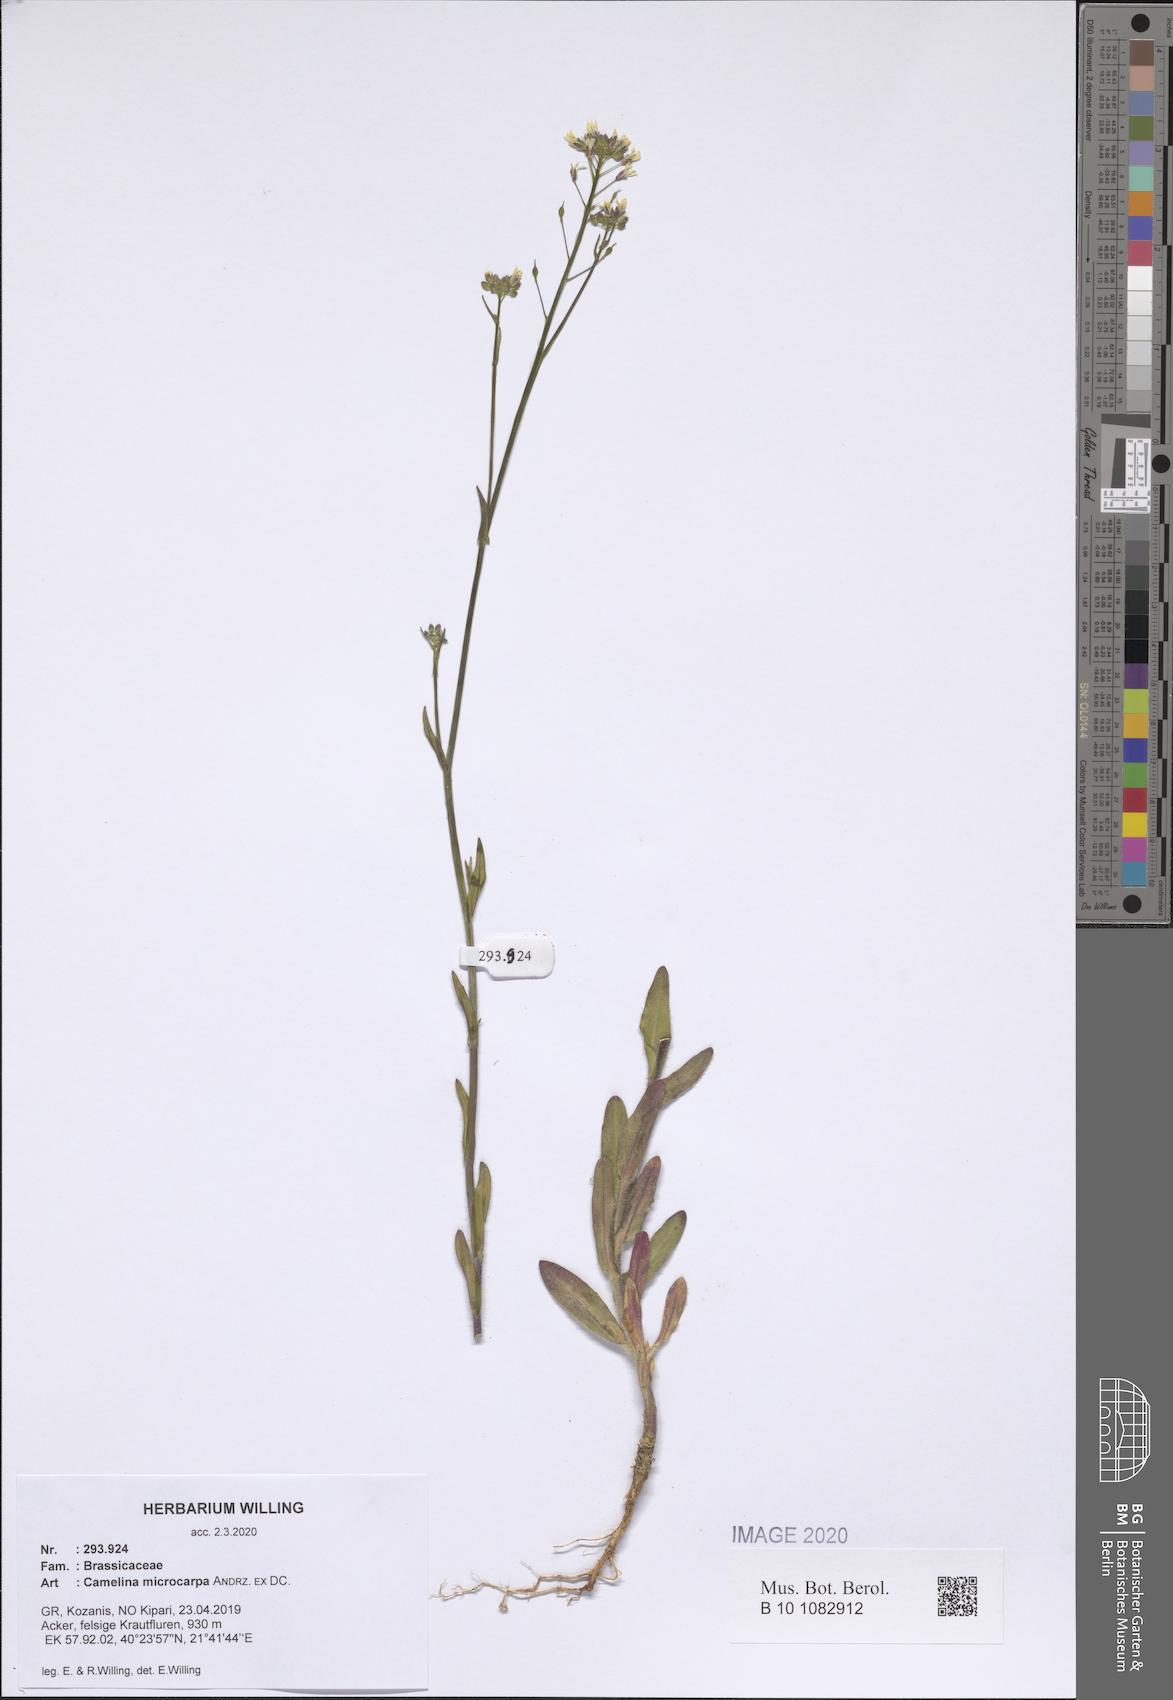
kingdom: Plantae
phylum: Tracheophyta
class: Magnoliopsida
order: Brassicales
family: Brassicaceae
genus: Camelina
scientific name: Camelina microcarpa
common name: Lesser gold-of-pleasure
